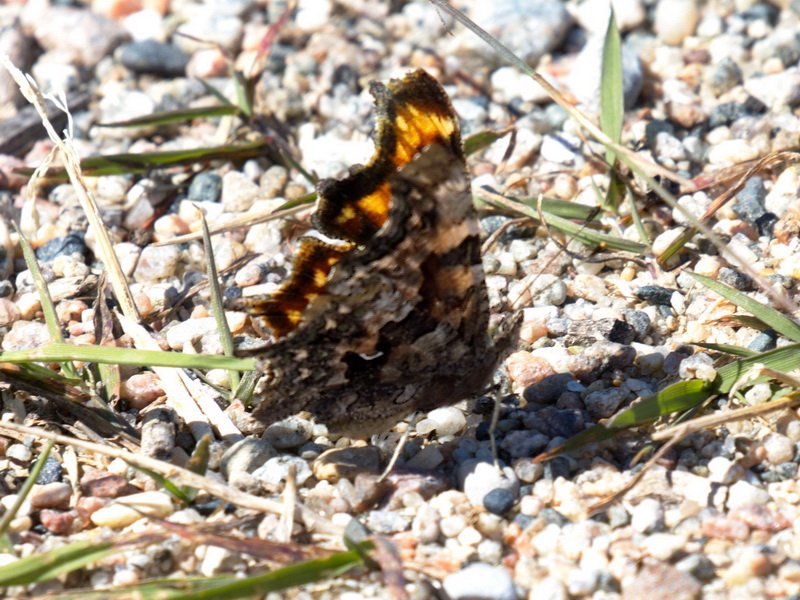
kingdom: Animalia
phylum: Arthropoda
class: Insecta
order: Lepidoptera
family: Nymphalidae
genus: Polygonia
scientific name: Polygonia faunus
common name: Green Comma
